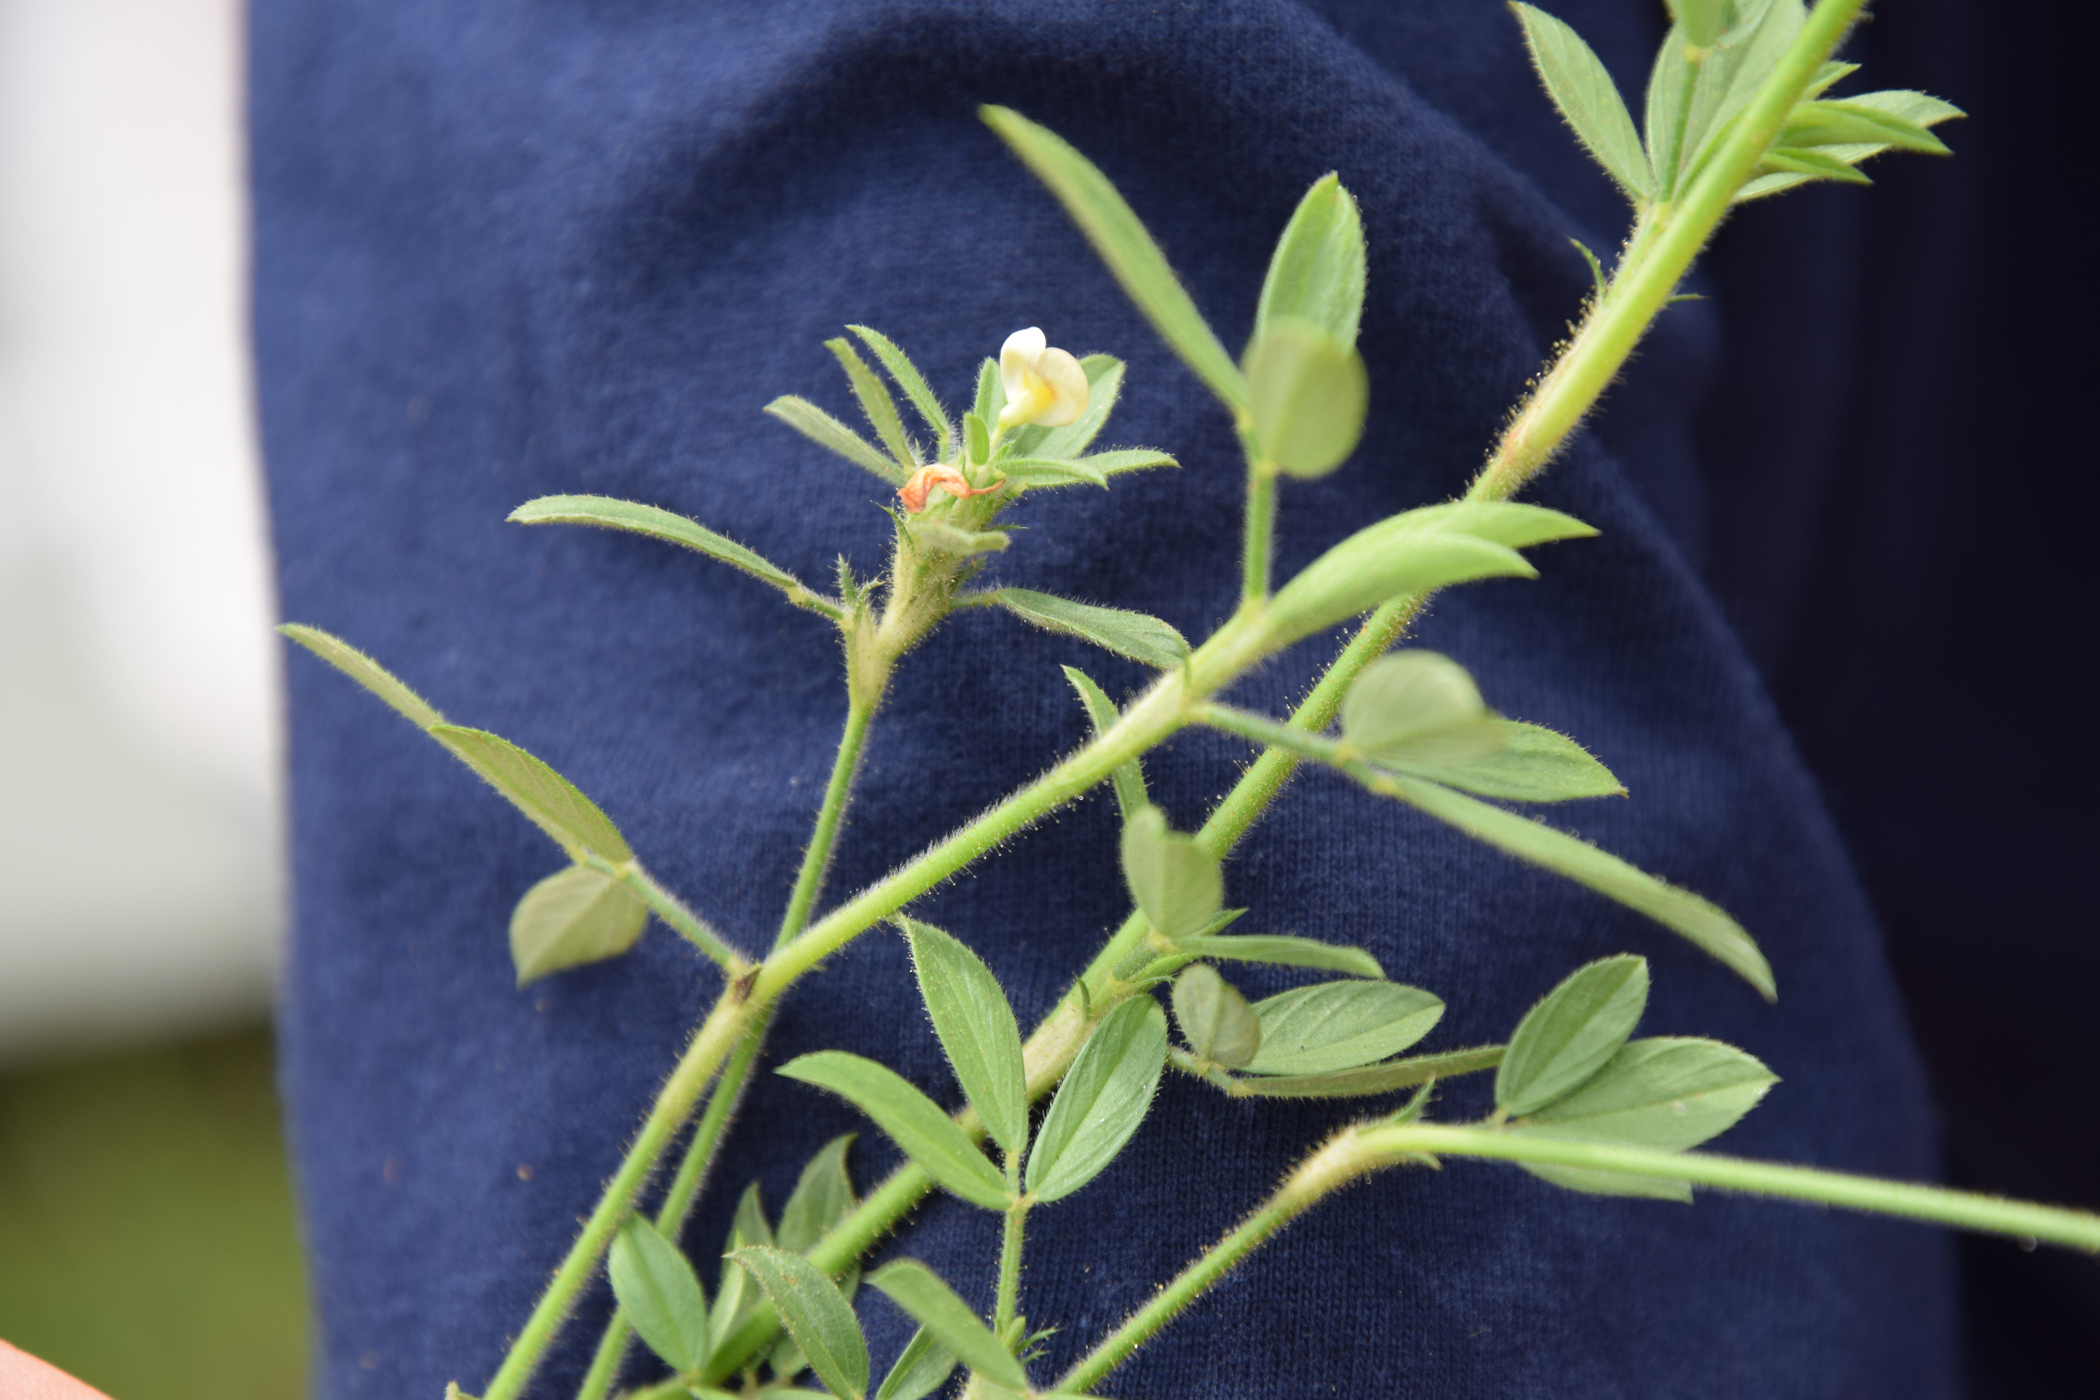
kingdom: Plantae
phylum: Tracheophyta
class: Magnoliopsida
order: Fabales
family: Fabaceae
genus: Stylosanthes
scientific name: Stylosanthes humilis
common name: Townsville stylo
